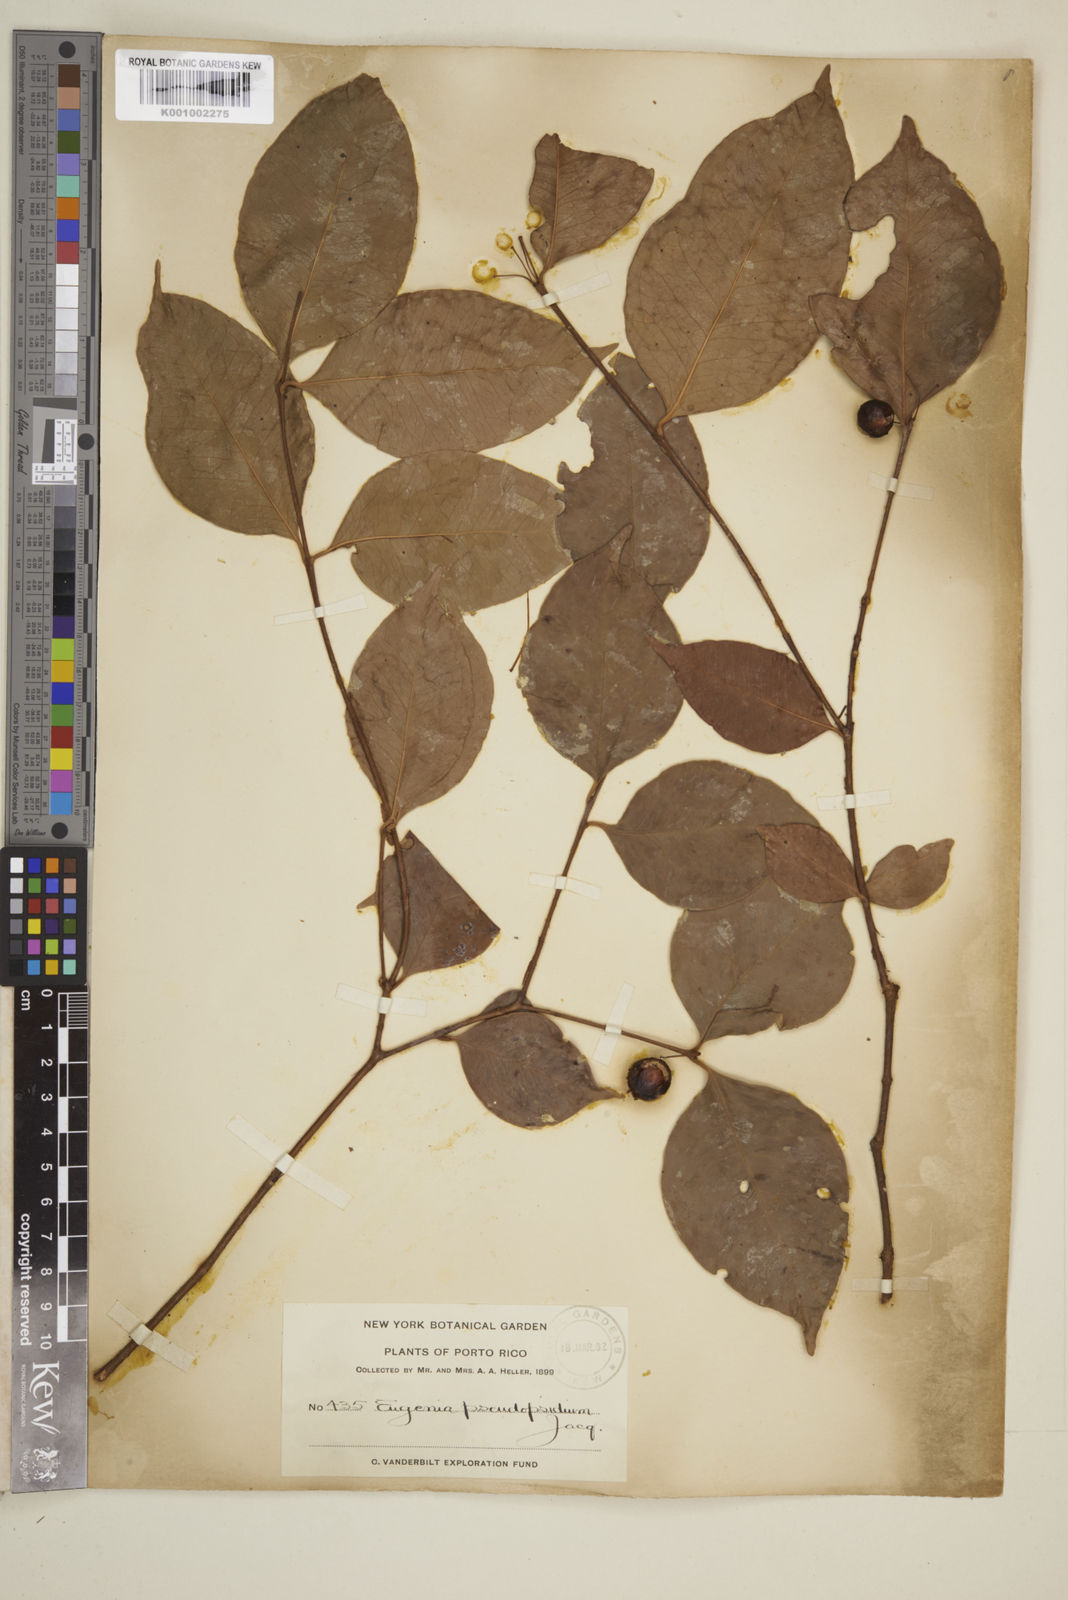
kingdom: Plantae
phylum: Tracheophyta
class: Magnoliopsida
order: Myrtales
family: Myrtaceae
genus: Eugenia
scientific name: Eugenia pseudopsidium
